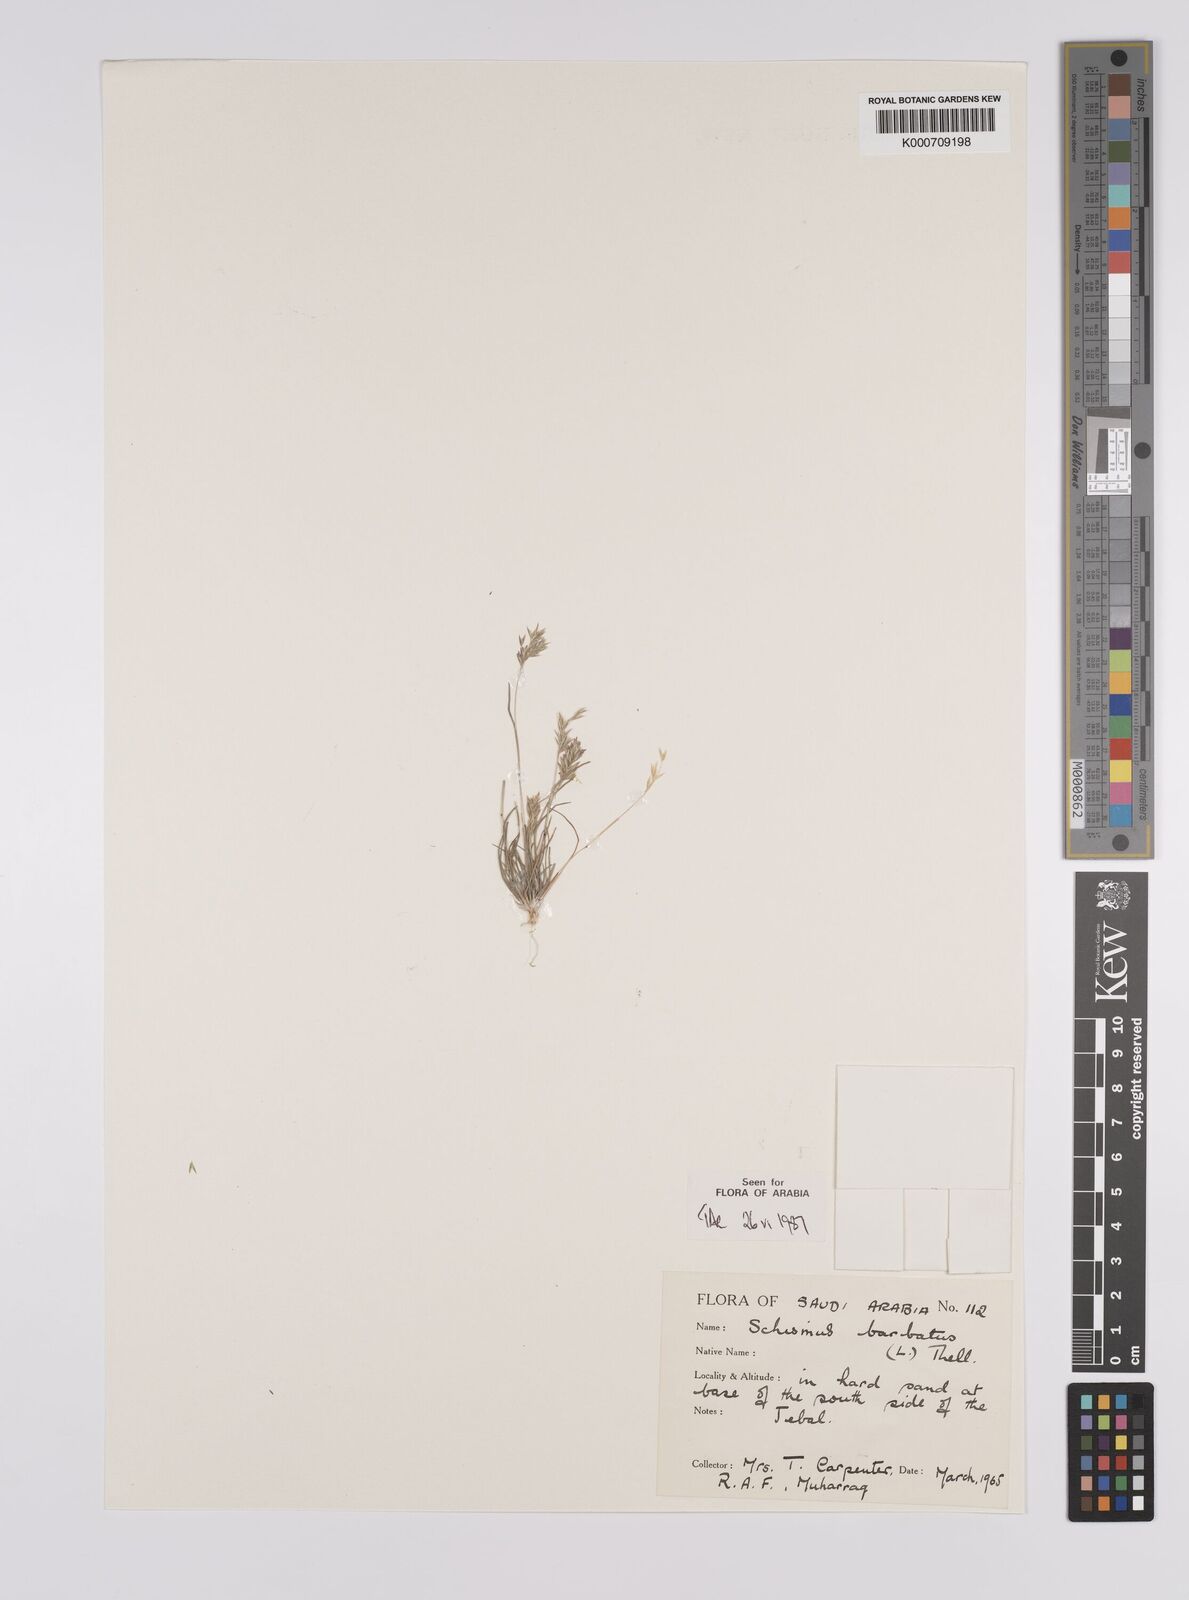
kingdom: Plantae
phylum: Tracheophyta
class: Liliopsida
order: Poales
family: Poaceae
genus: Schismus
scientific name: Schismus barbatus
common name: Kelch-grass
